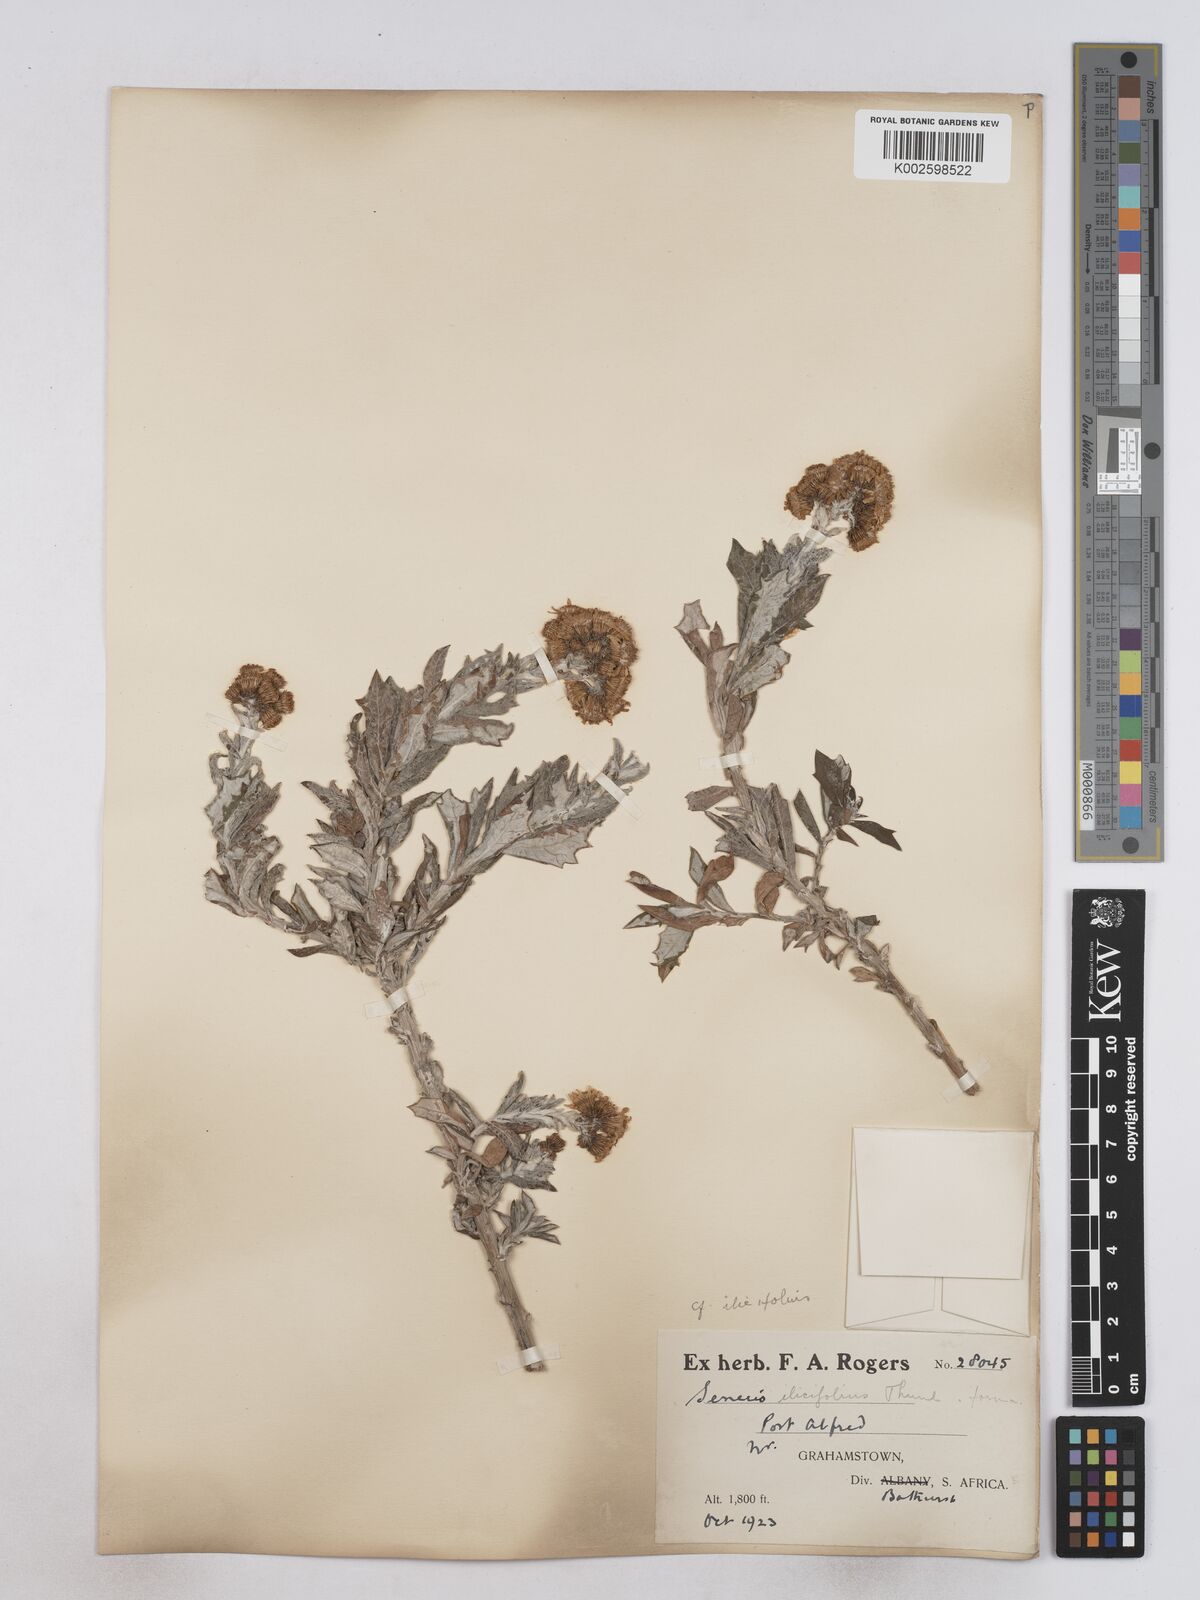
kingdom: Plantae
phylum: Tracheophyta
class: Magnoliopsida
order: Asterales
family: Asteraceae
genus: Senecio
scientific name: Senecio ilicifolius
